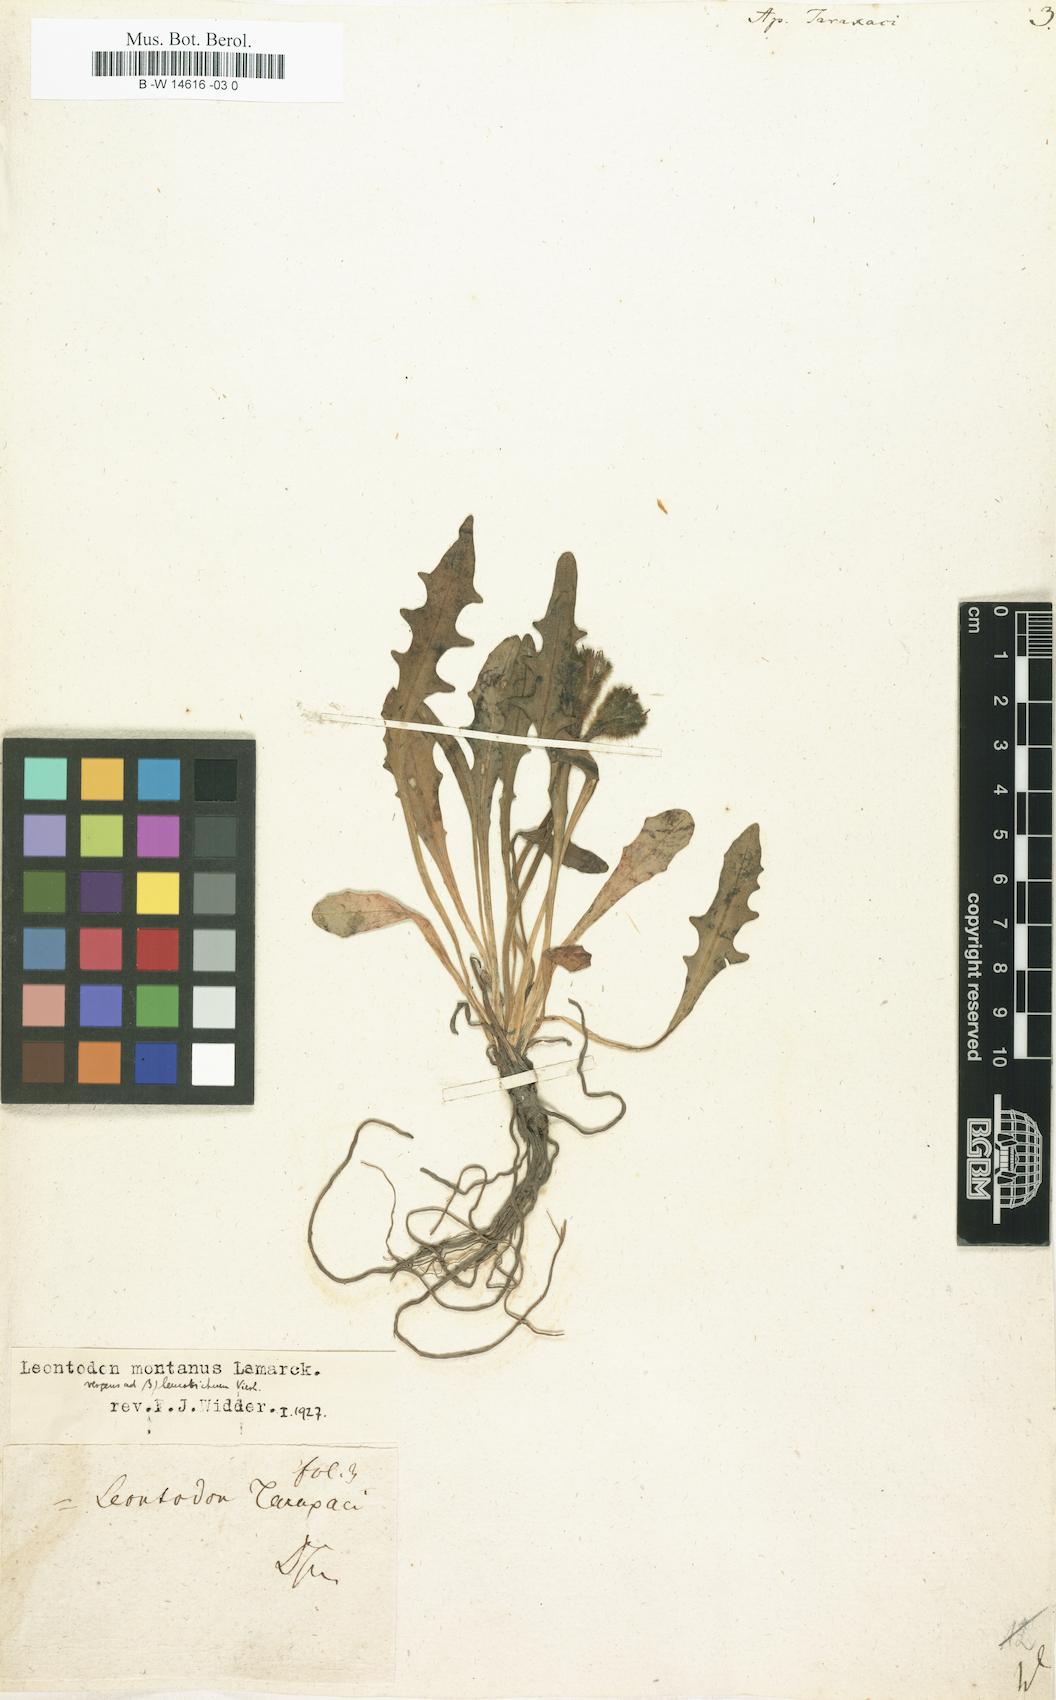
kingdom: Plantae
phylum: Tracheophyta
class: Magnoliopsida
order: Asterales
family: Asteraceae
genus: Scorzoneroides
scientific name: Scorzoneroides
